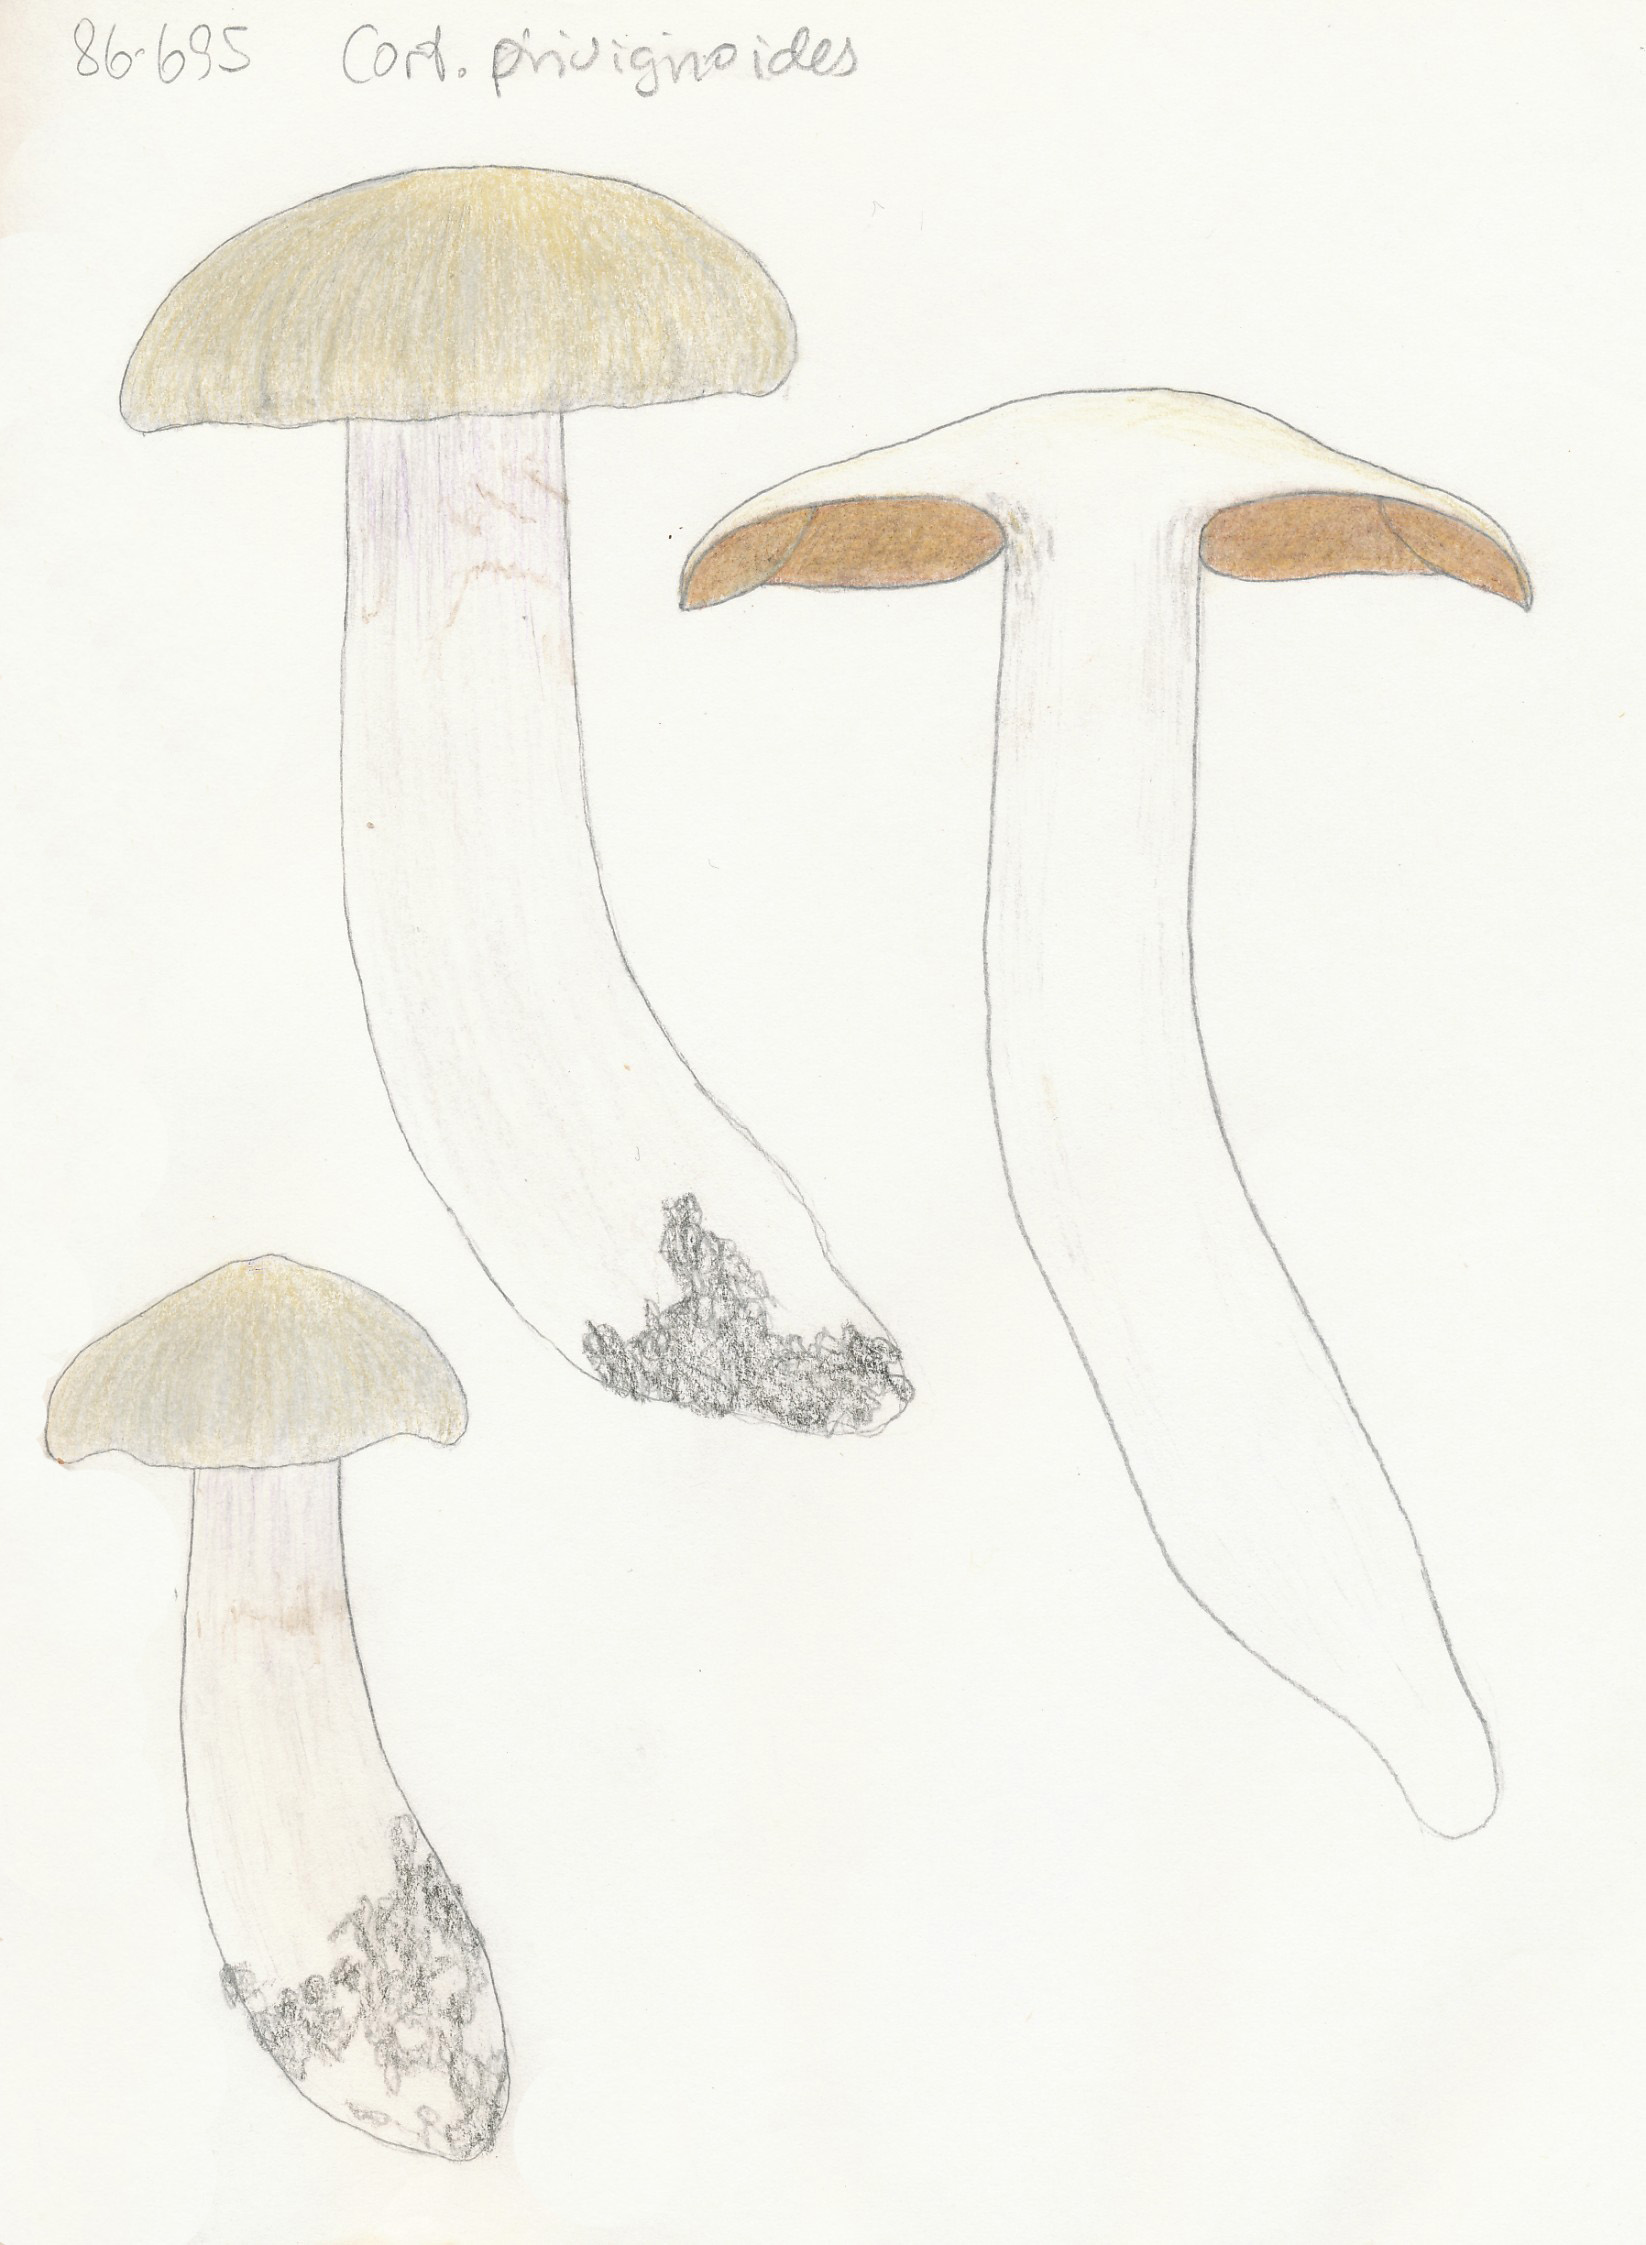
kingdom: Fungi
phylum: Basidiomycota
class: Agaricomycetes
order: Agaricales
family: Cortinariaceae
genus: Cortinarius
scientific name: Cortinarius turgidus
